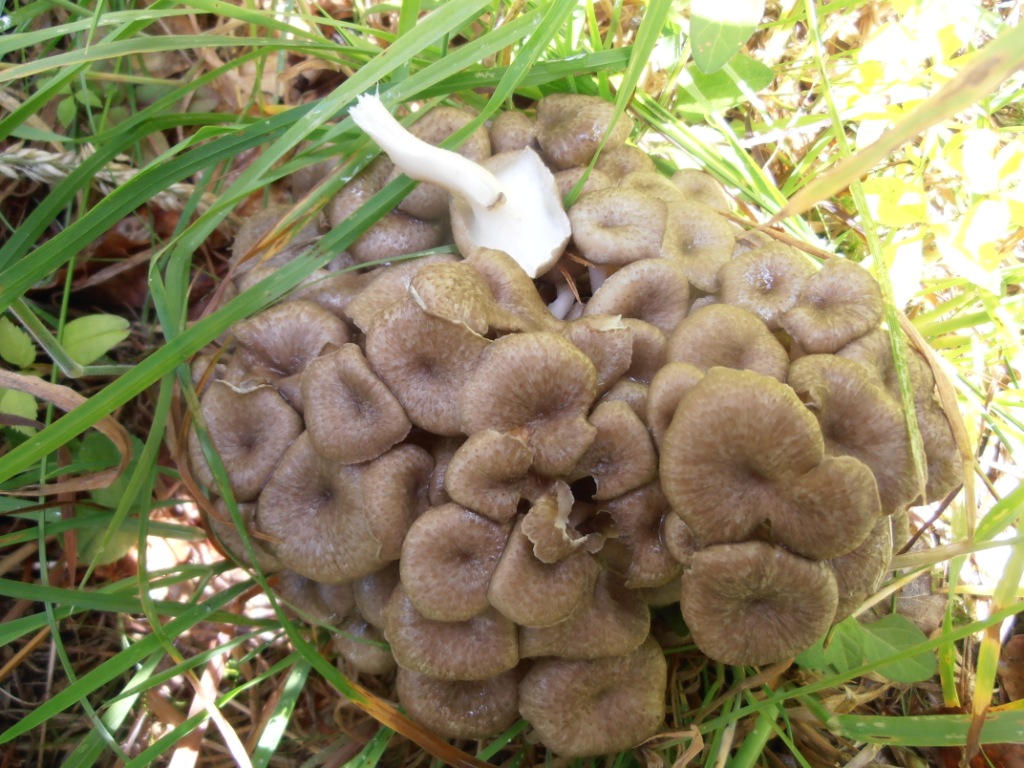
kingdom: Fungi
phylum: Basidiomycota
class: Agaricomycetes
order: Polyporales
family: Polyporaceae
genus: Polyporus
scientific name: Polyporus umbellatus
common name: skærmformet stilkporesvamp
